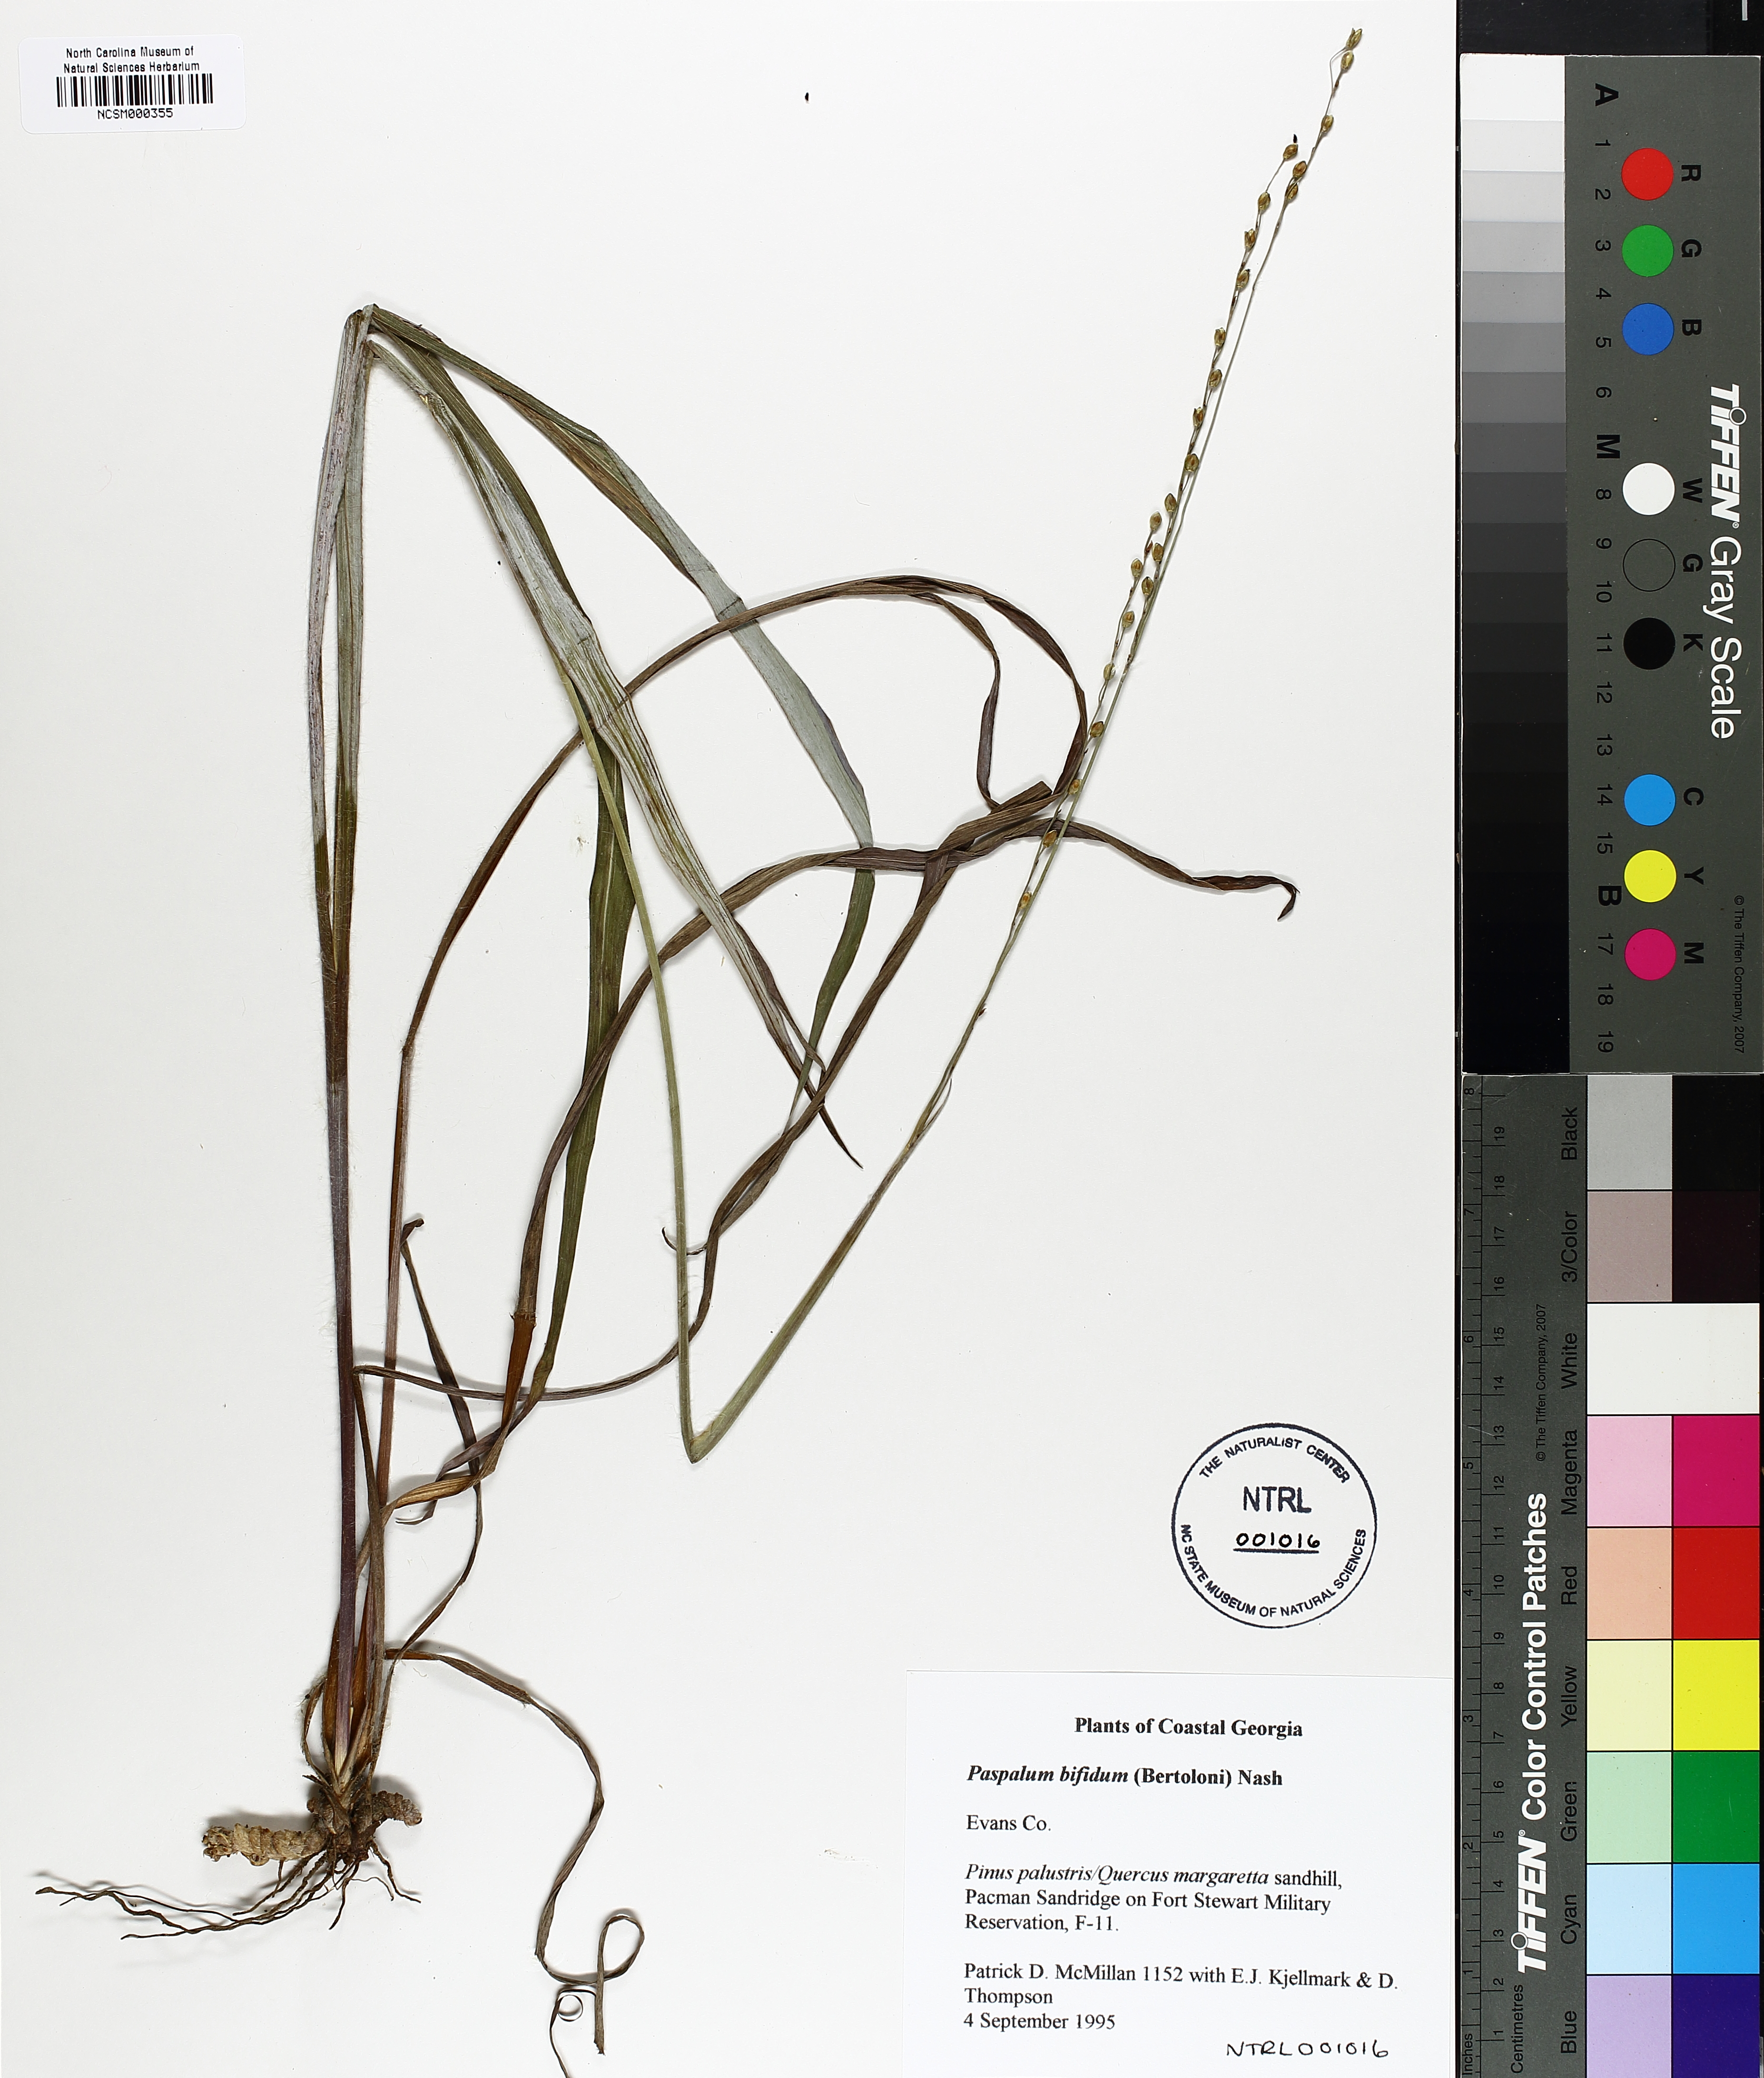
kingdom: Plantae
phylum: Tracheophyta
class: Liliopsida
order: Poales
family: Poaceae
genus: Paspalum
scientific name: Paspalum bifidum
